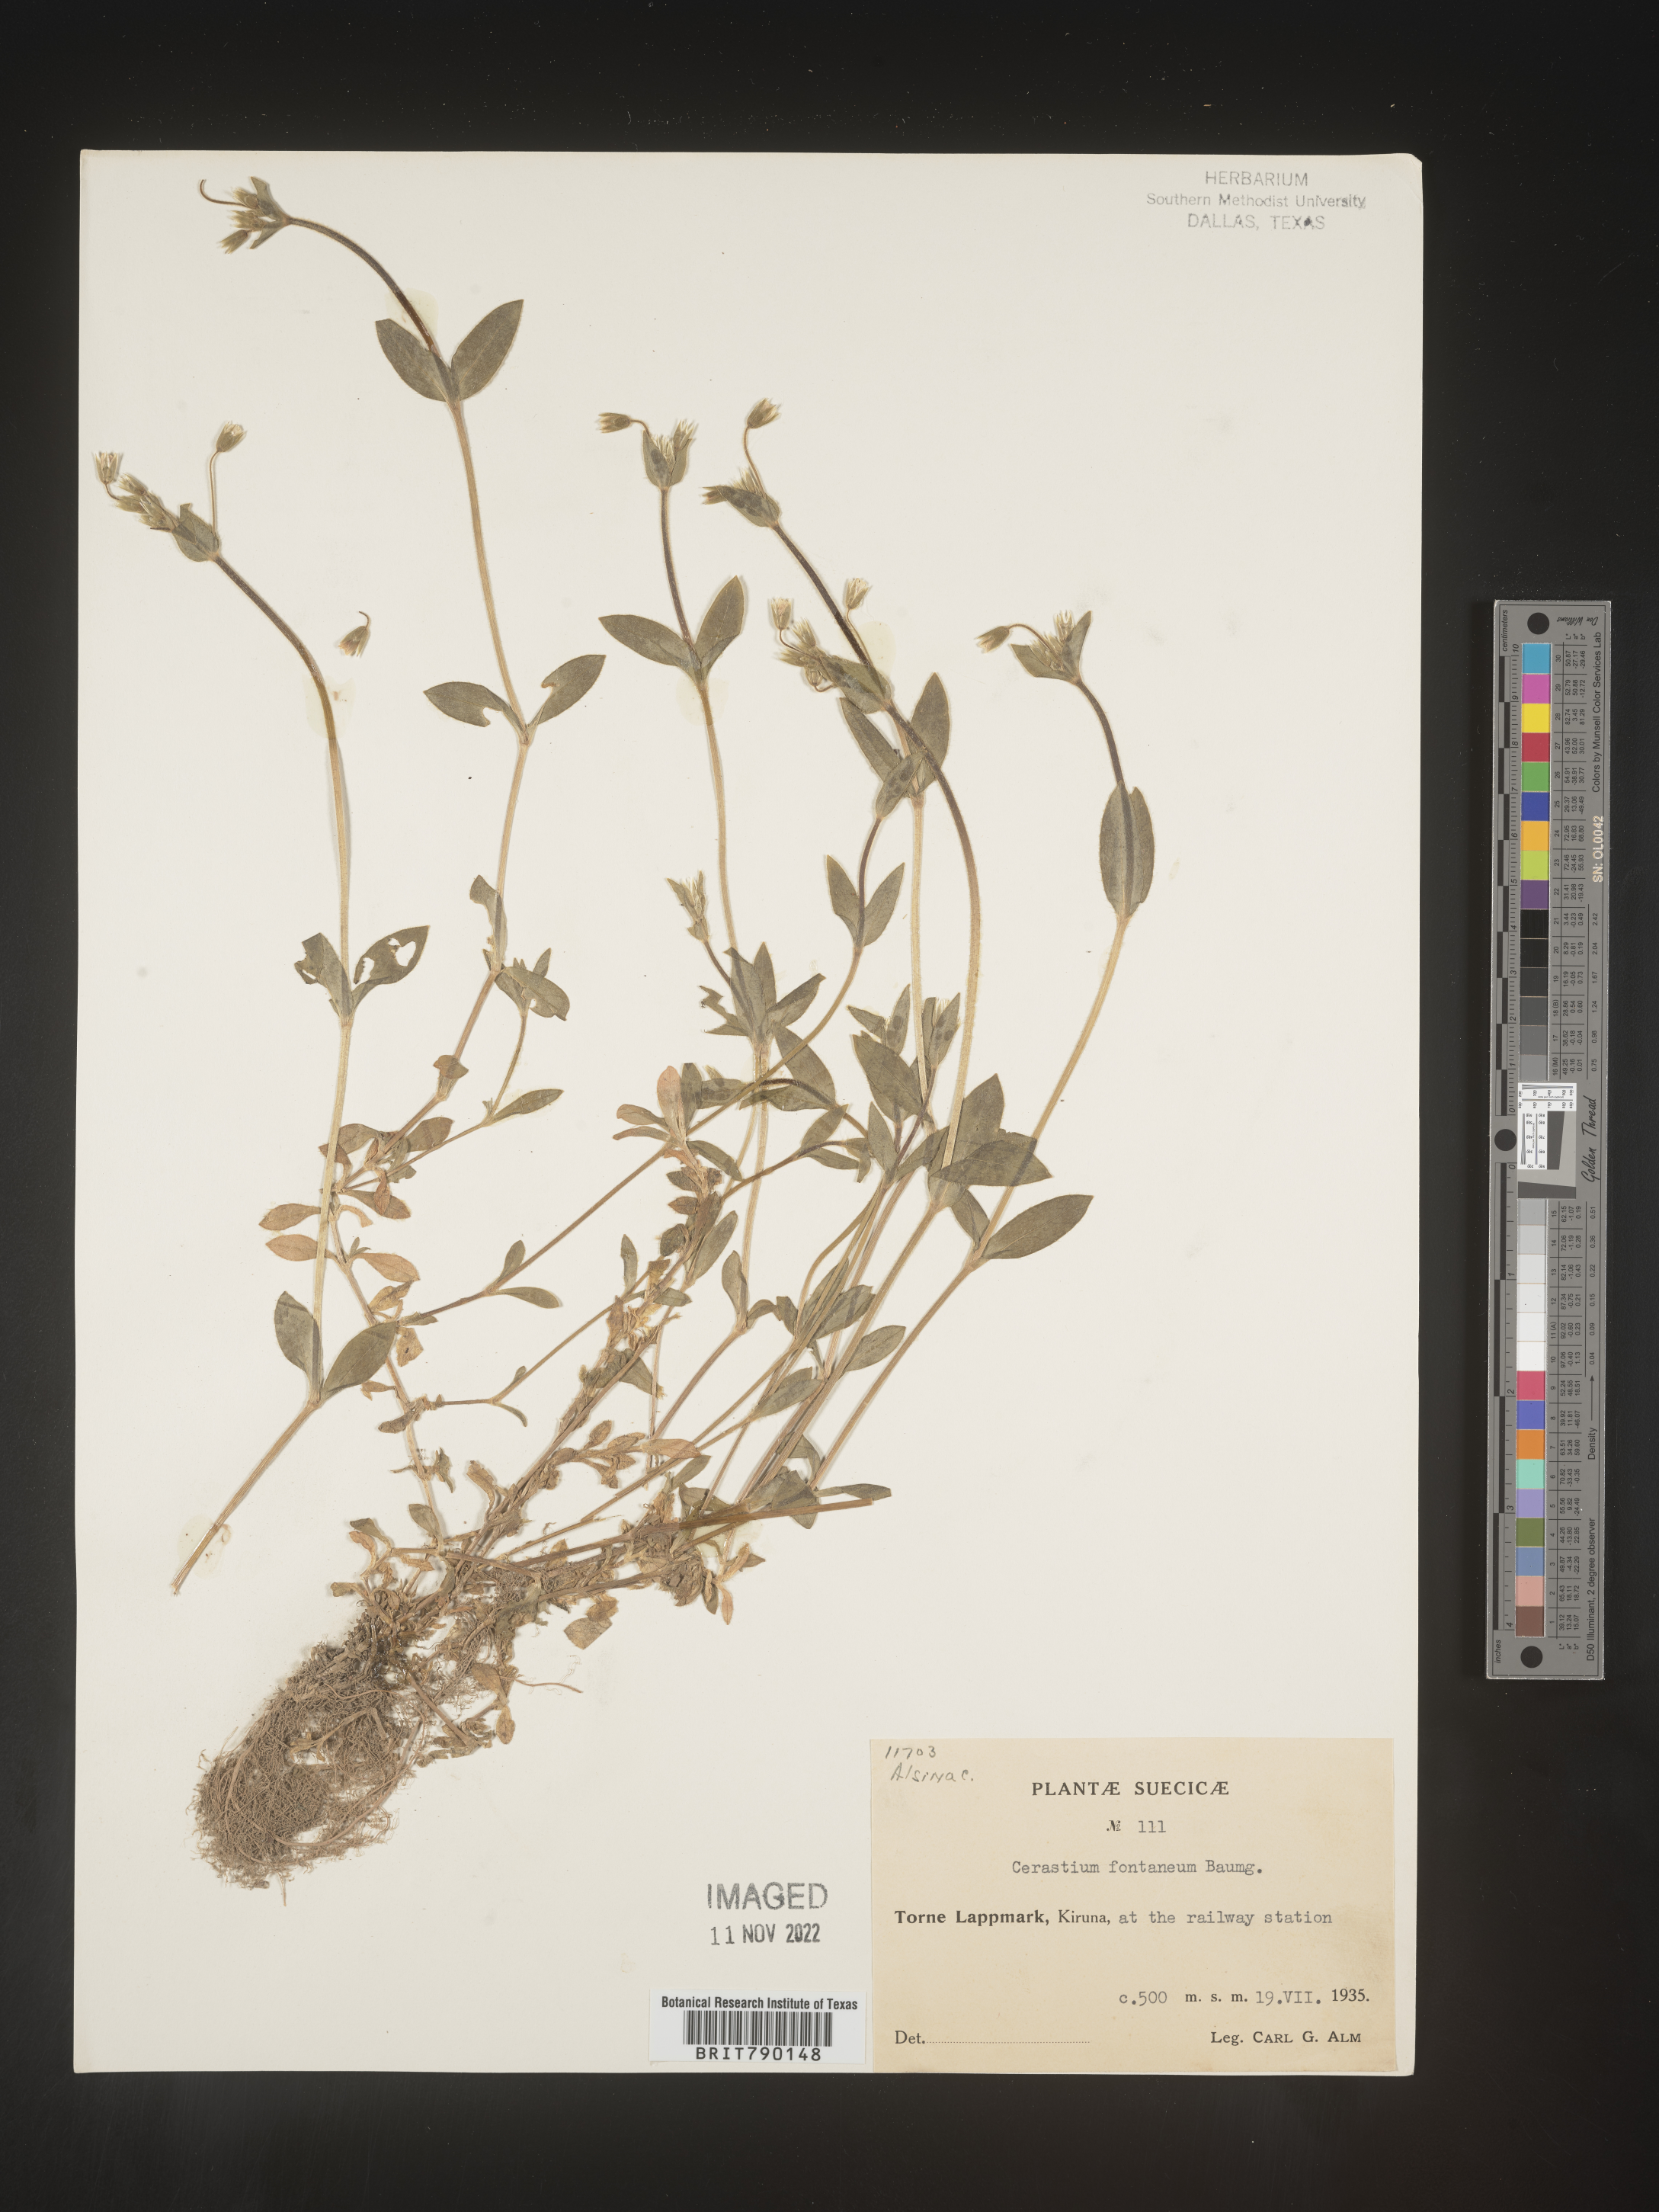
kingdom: Plantae
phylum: Tracheophyta
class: Magnoliopsida
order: Caryophyllales
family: Caryophyllaceae
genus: Cerastium
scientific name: Cerastium
